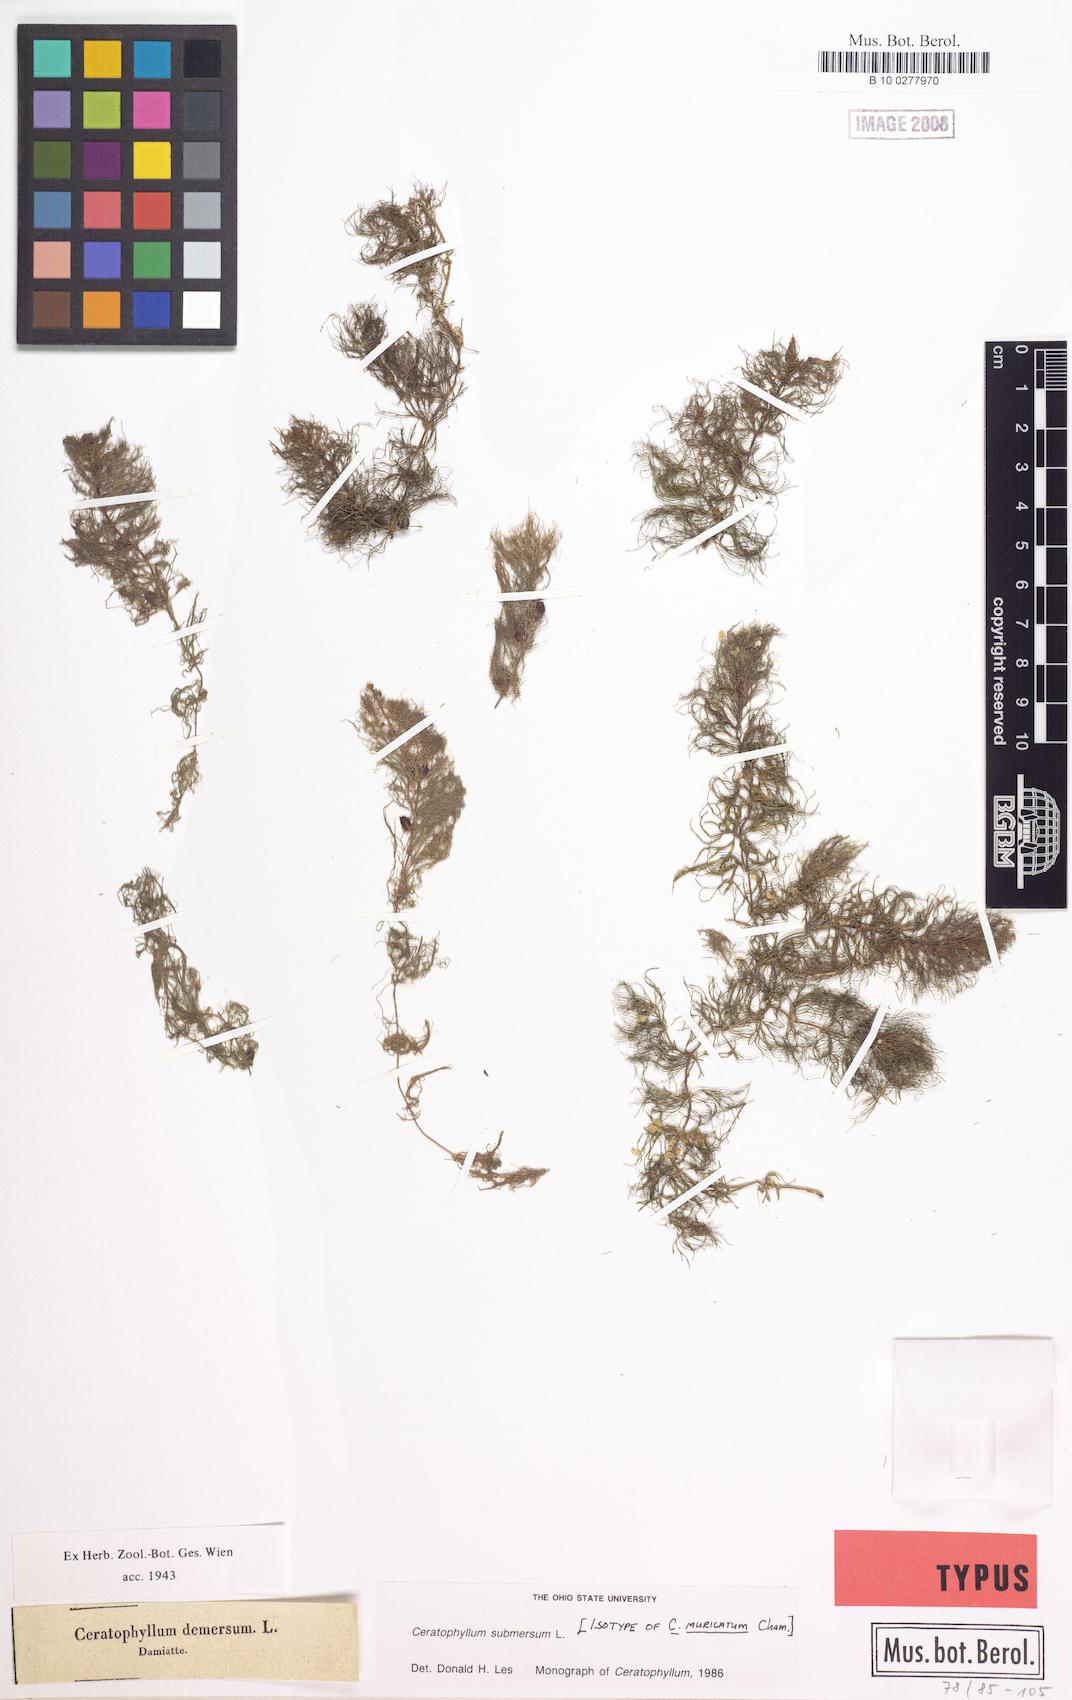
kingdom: Plantae
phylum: Tracheophyta
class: Magnoliopsida
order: Ceratophyllales
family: Ceratophyllaceae
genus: Ceratophyllum
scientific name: Ceratophyllum muricatum
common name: Prickly hornwort
